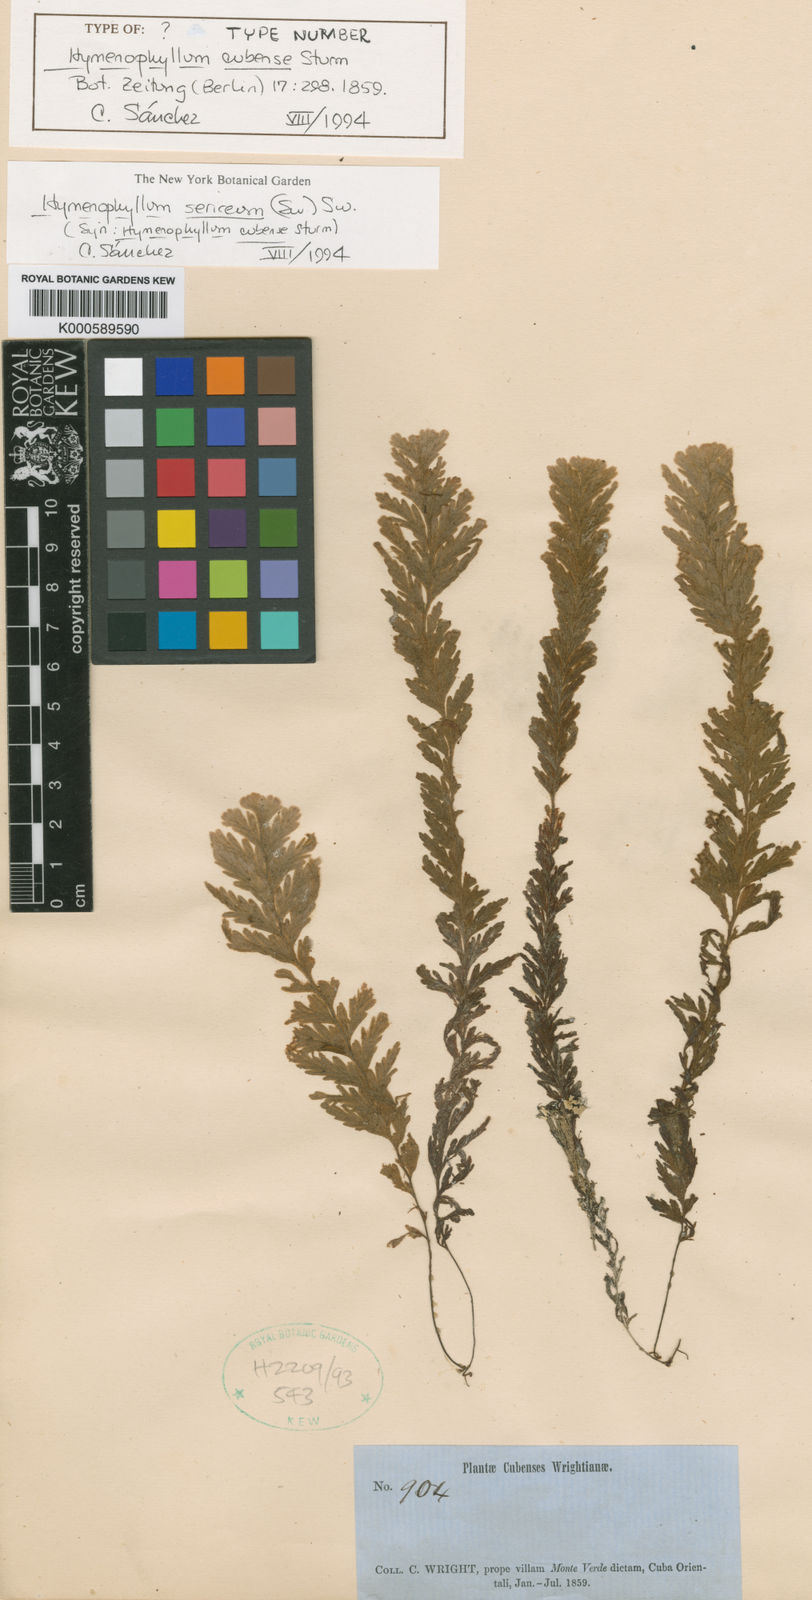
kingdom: Plantae
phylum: Tracheophyta
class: Polypodiopsida
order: Hymenophyllales
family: Hymenophyllaceae
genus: Hymenophyllum
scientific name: Hymenophyllum sericeum
